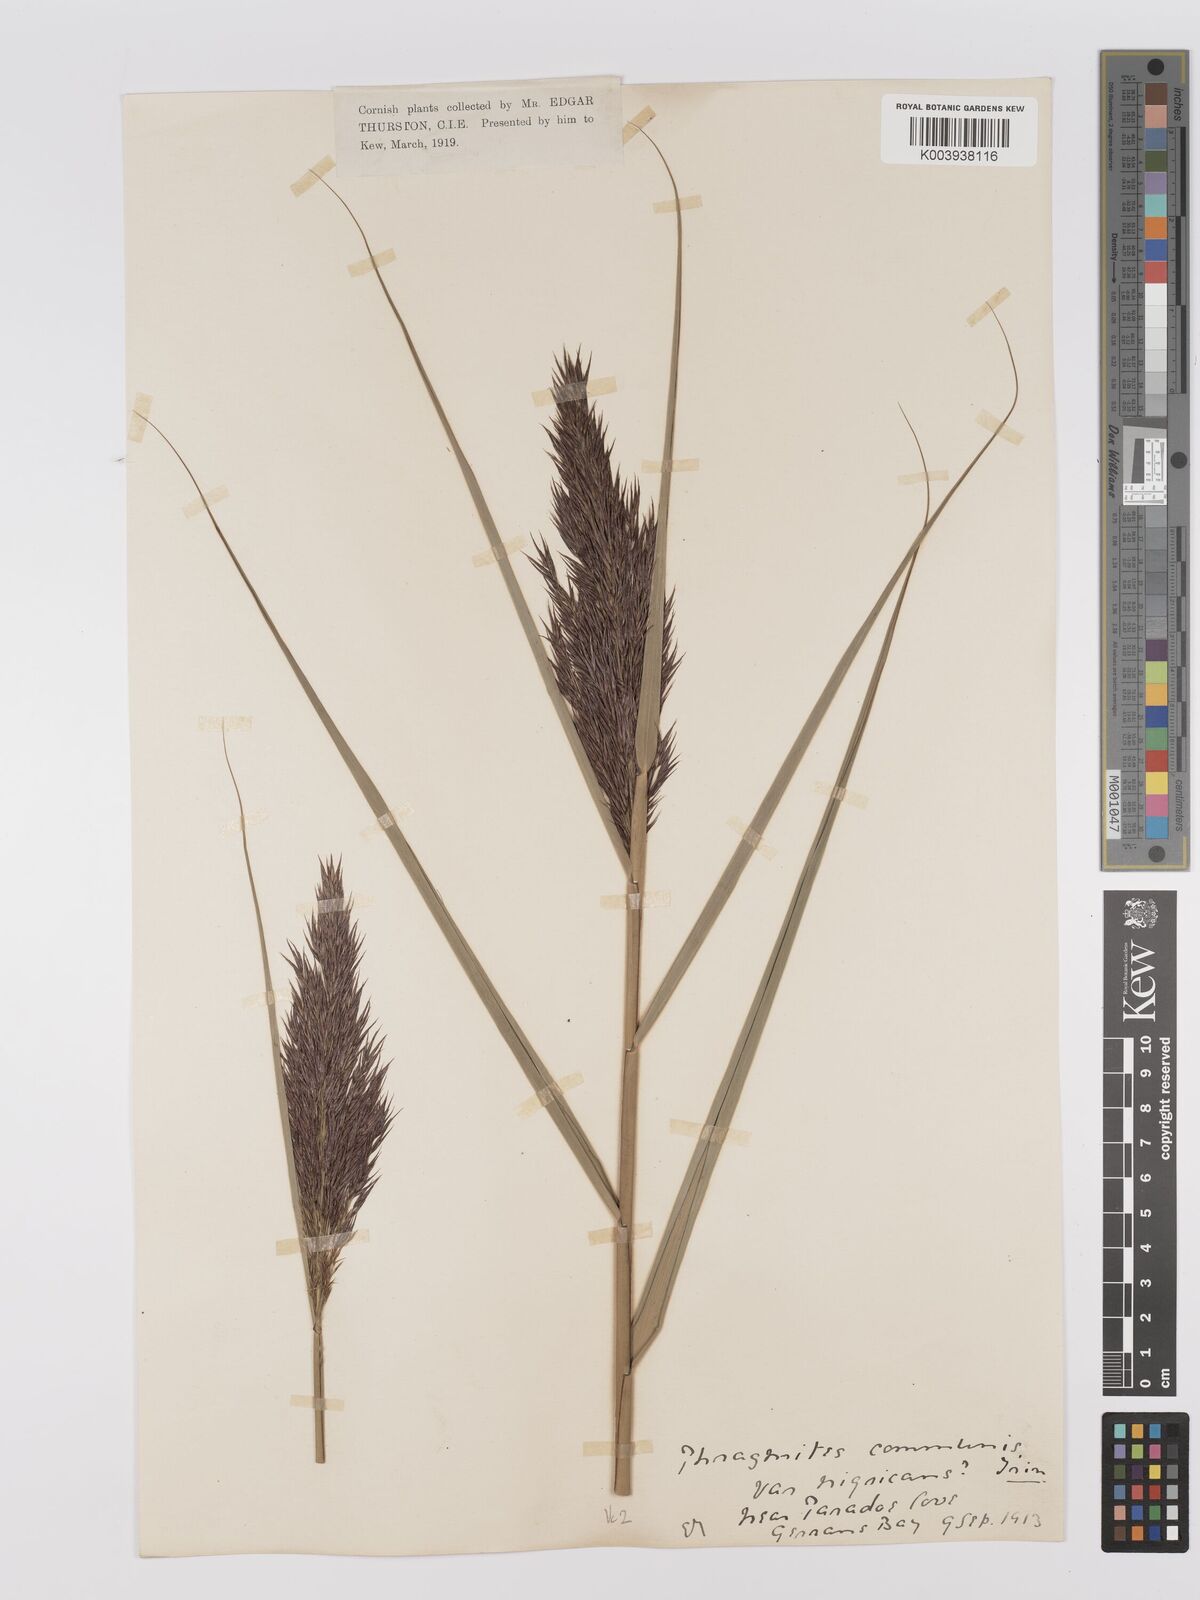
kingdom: Plantae
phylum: Tracheophyta
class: Liliopsida
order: Poales
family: Poaceae
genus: Phragmites
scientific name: Phragmites australis
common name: Common reed
